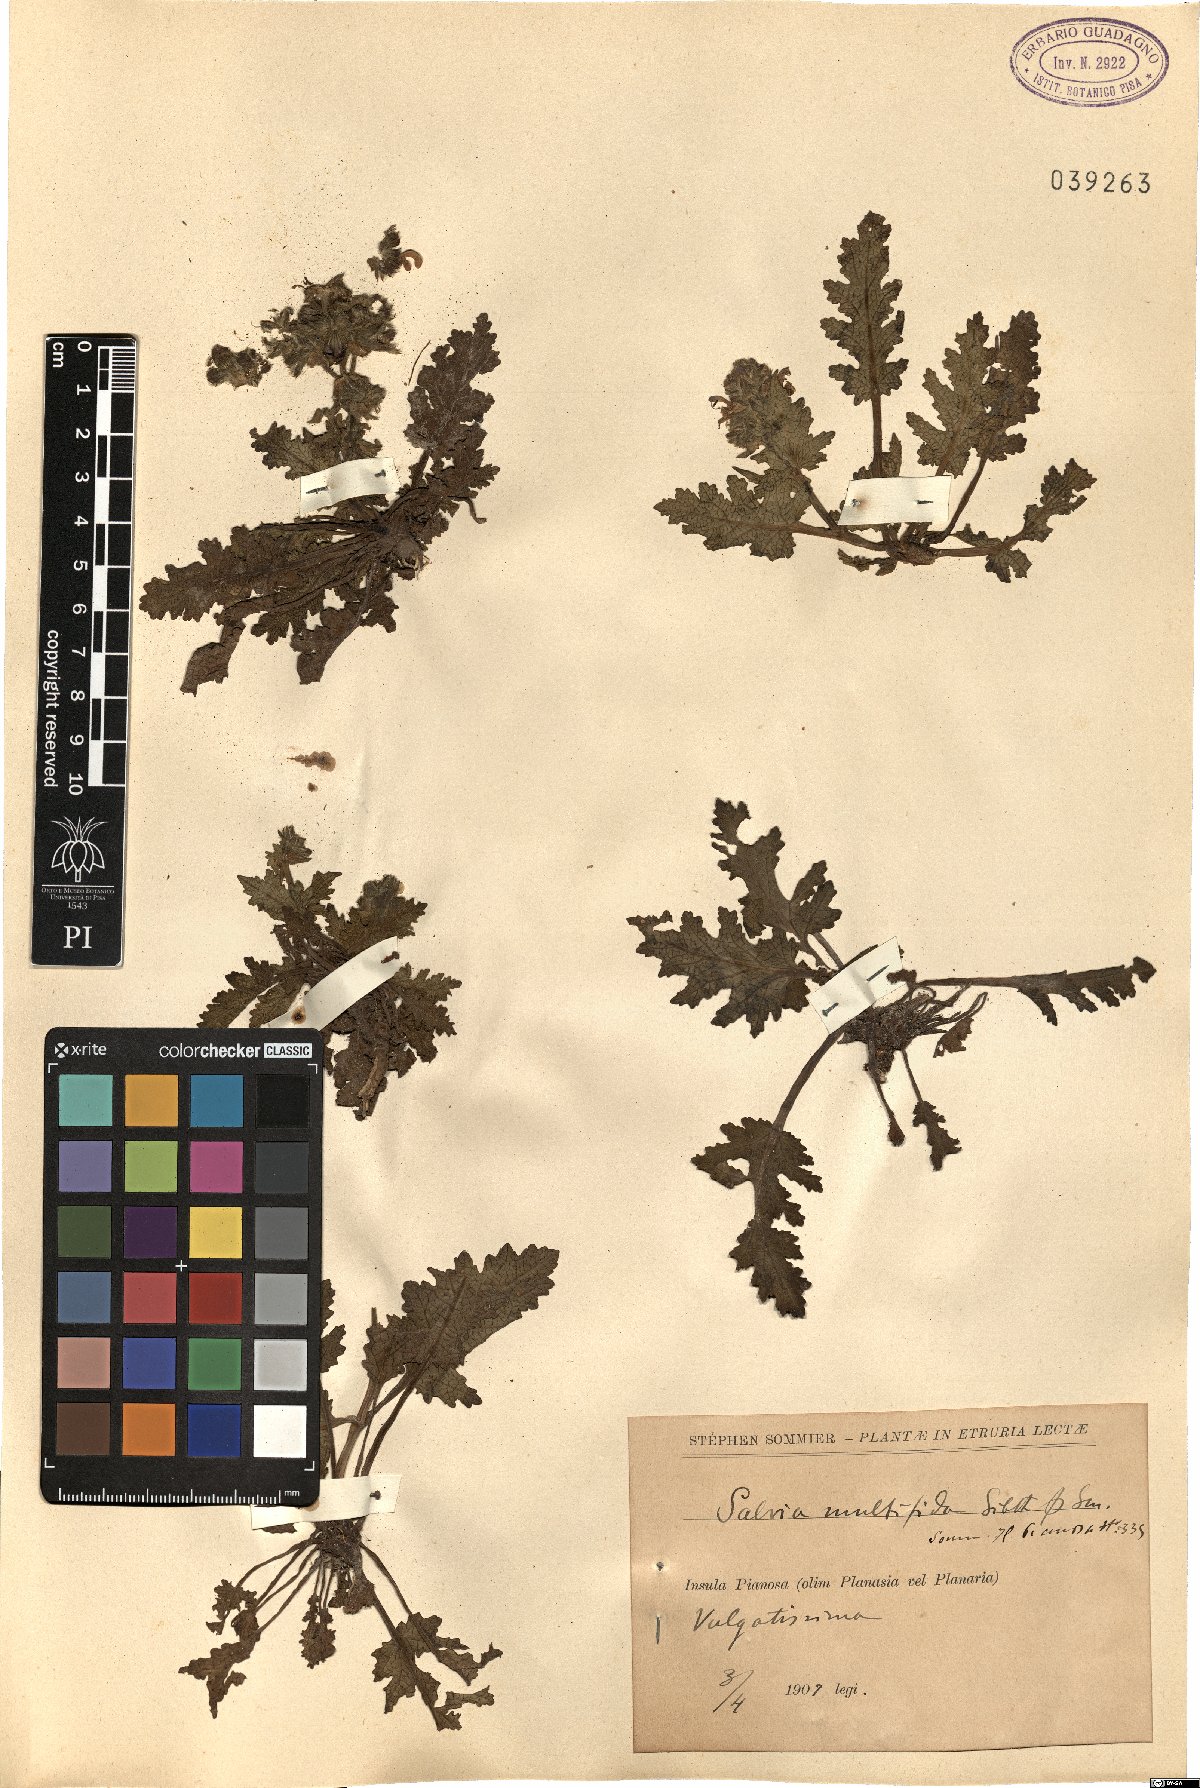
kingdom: Plantae
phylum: Tracheophyta
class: Magnoliopsida
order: Lamiales
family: Lamiaceae
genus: Salvia
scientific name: Salvia verbenaca
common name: Wild clary
